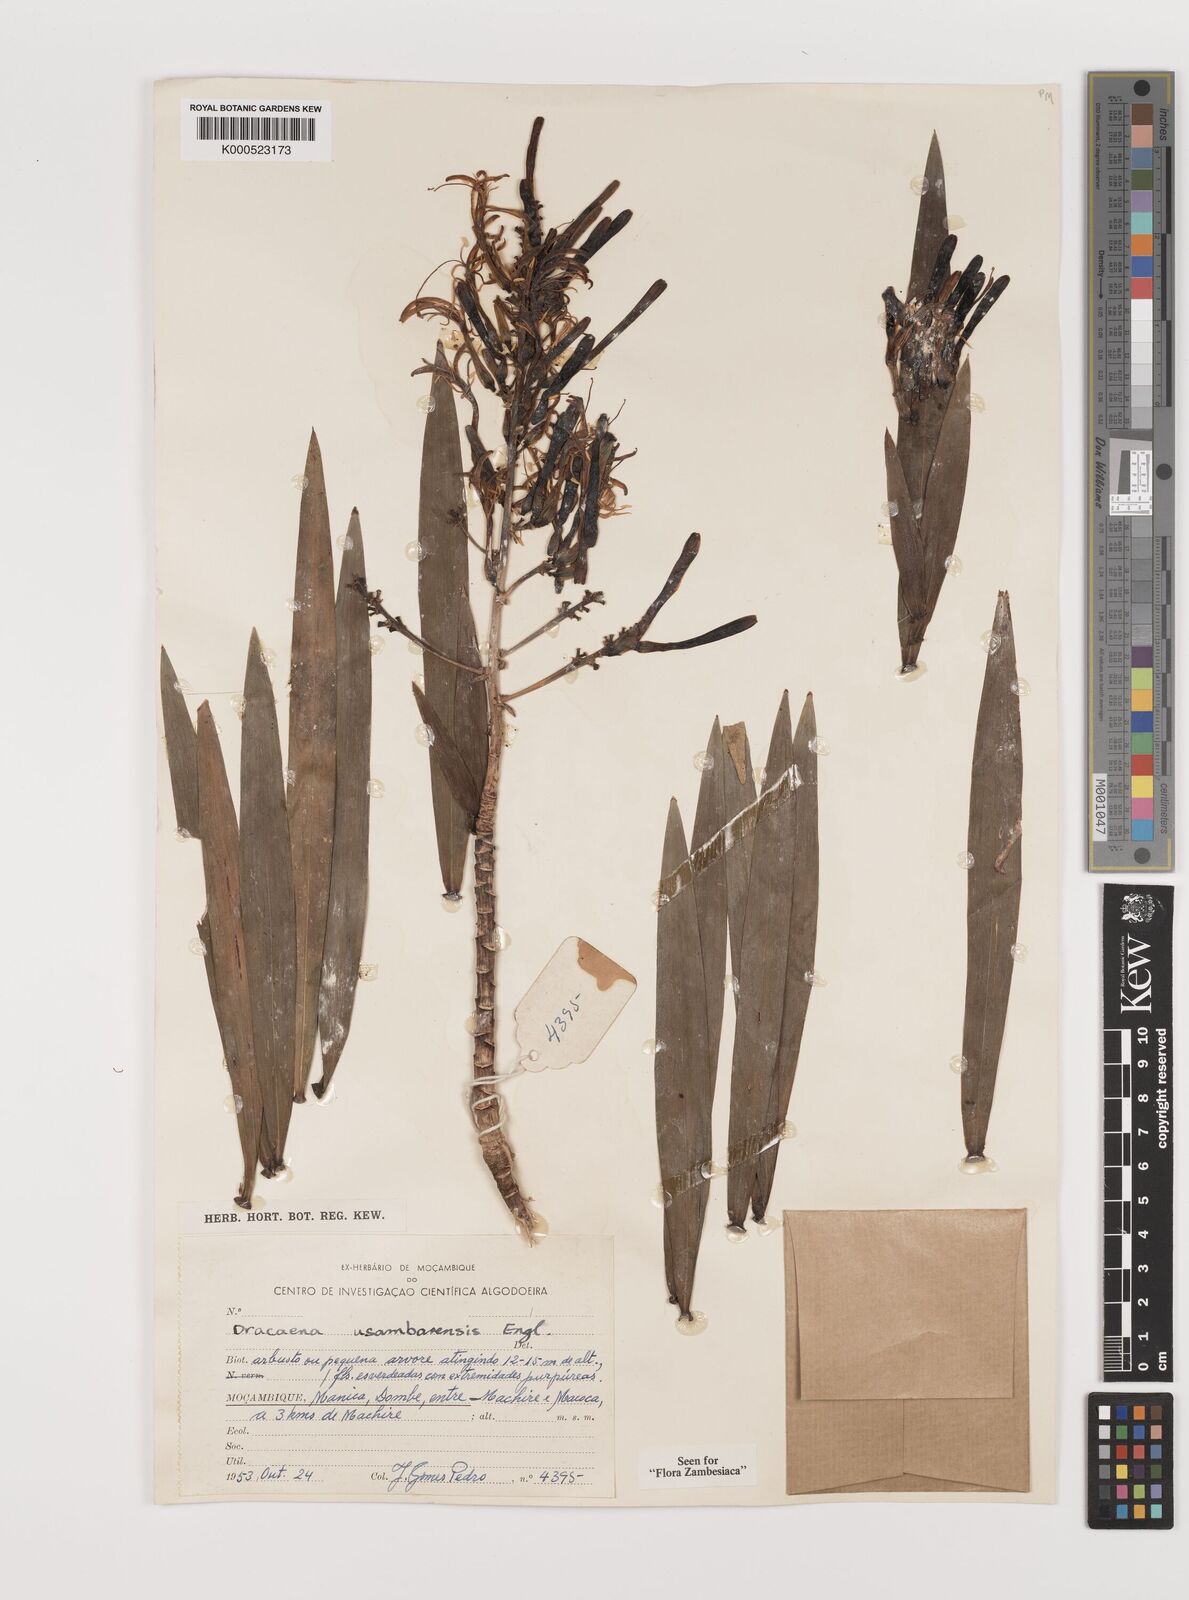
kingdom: Plantae
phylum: Tracheophyta
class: Liliopsida
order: Asparagales
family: Asparagaceae
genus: Dracaena
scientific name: Dracaena usambarensis
